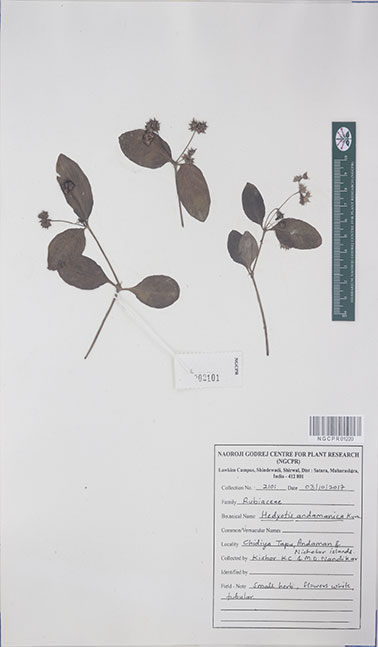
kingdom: Plantae
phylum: Tracheophyta
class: Magnoliopsida
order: Gentianales
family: Rubiaceae
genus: Debia
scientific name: Debia andamanica
